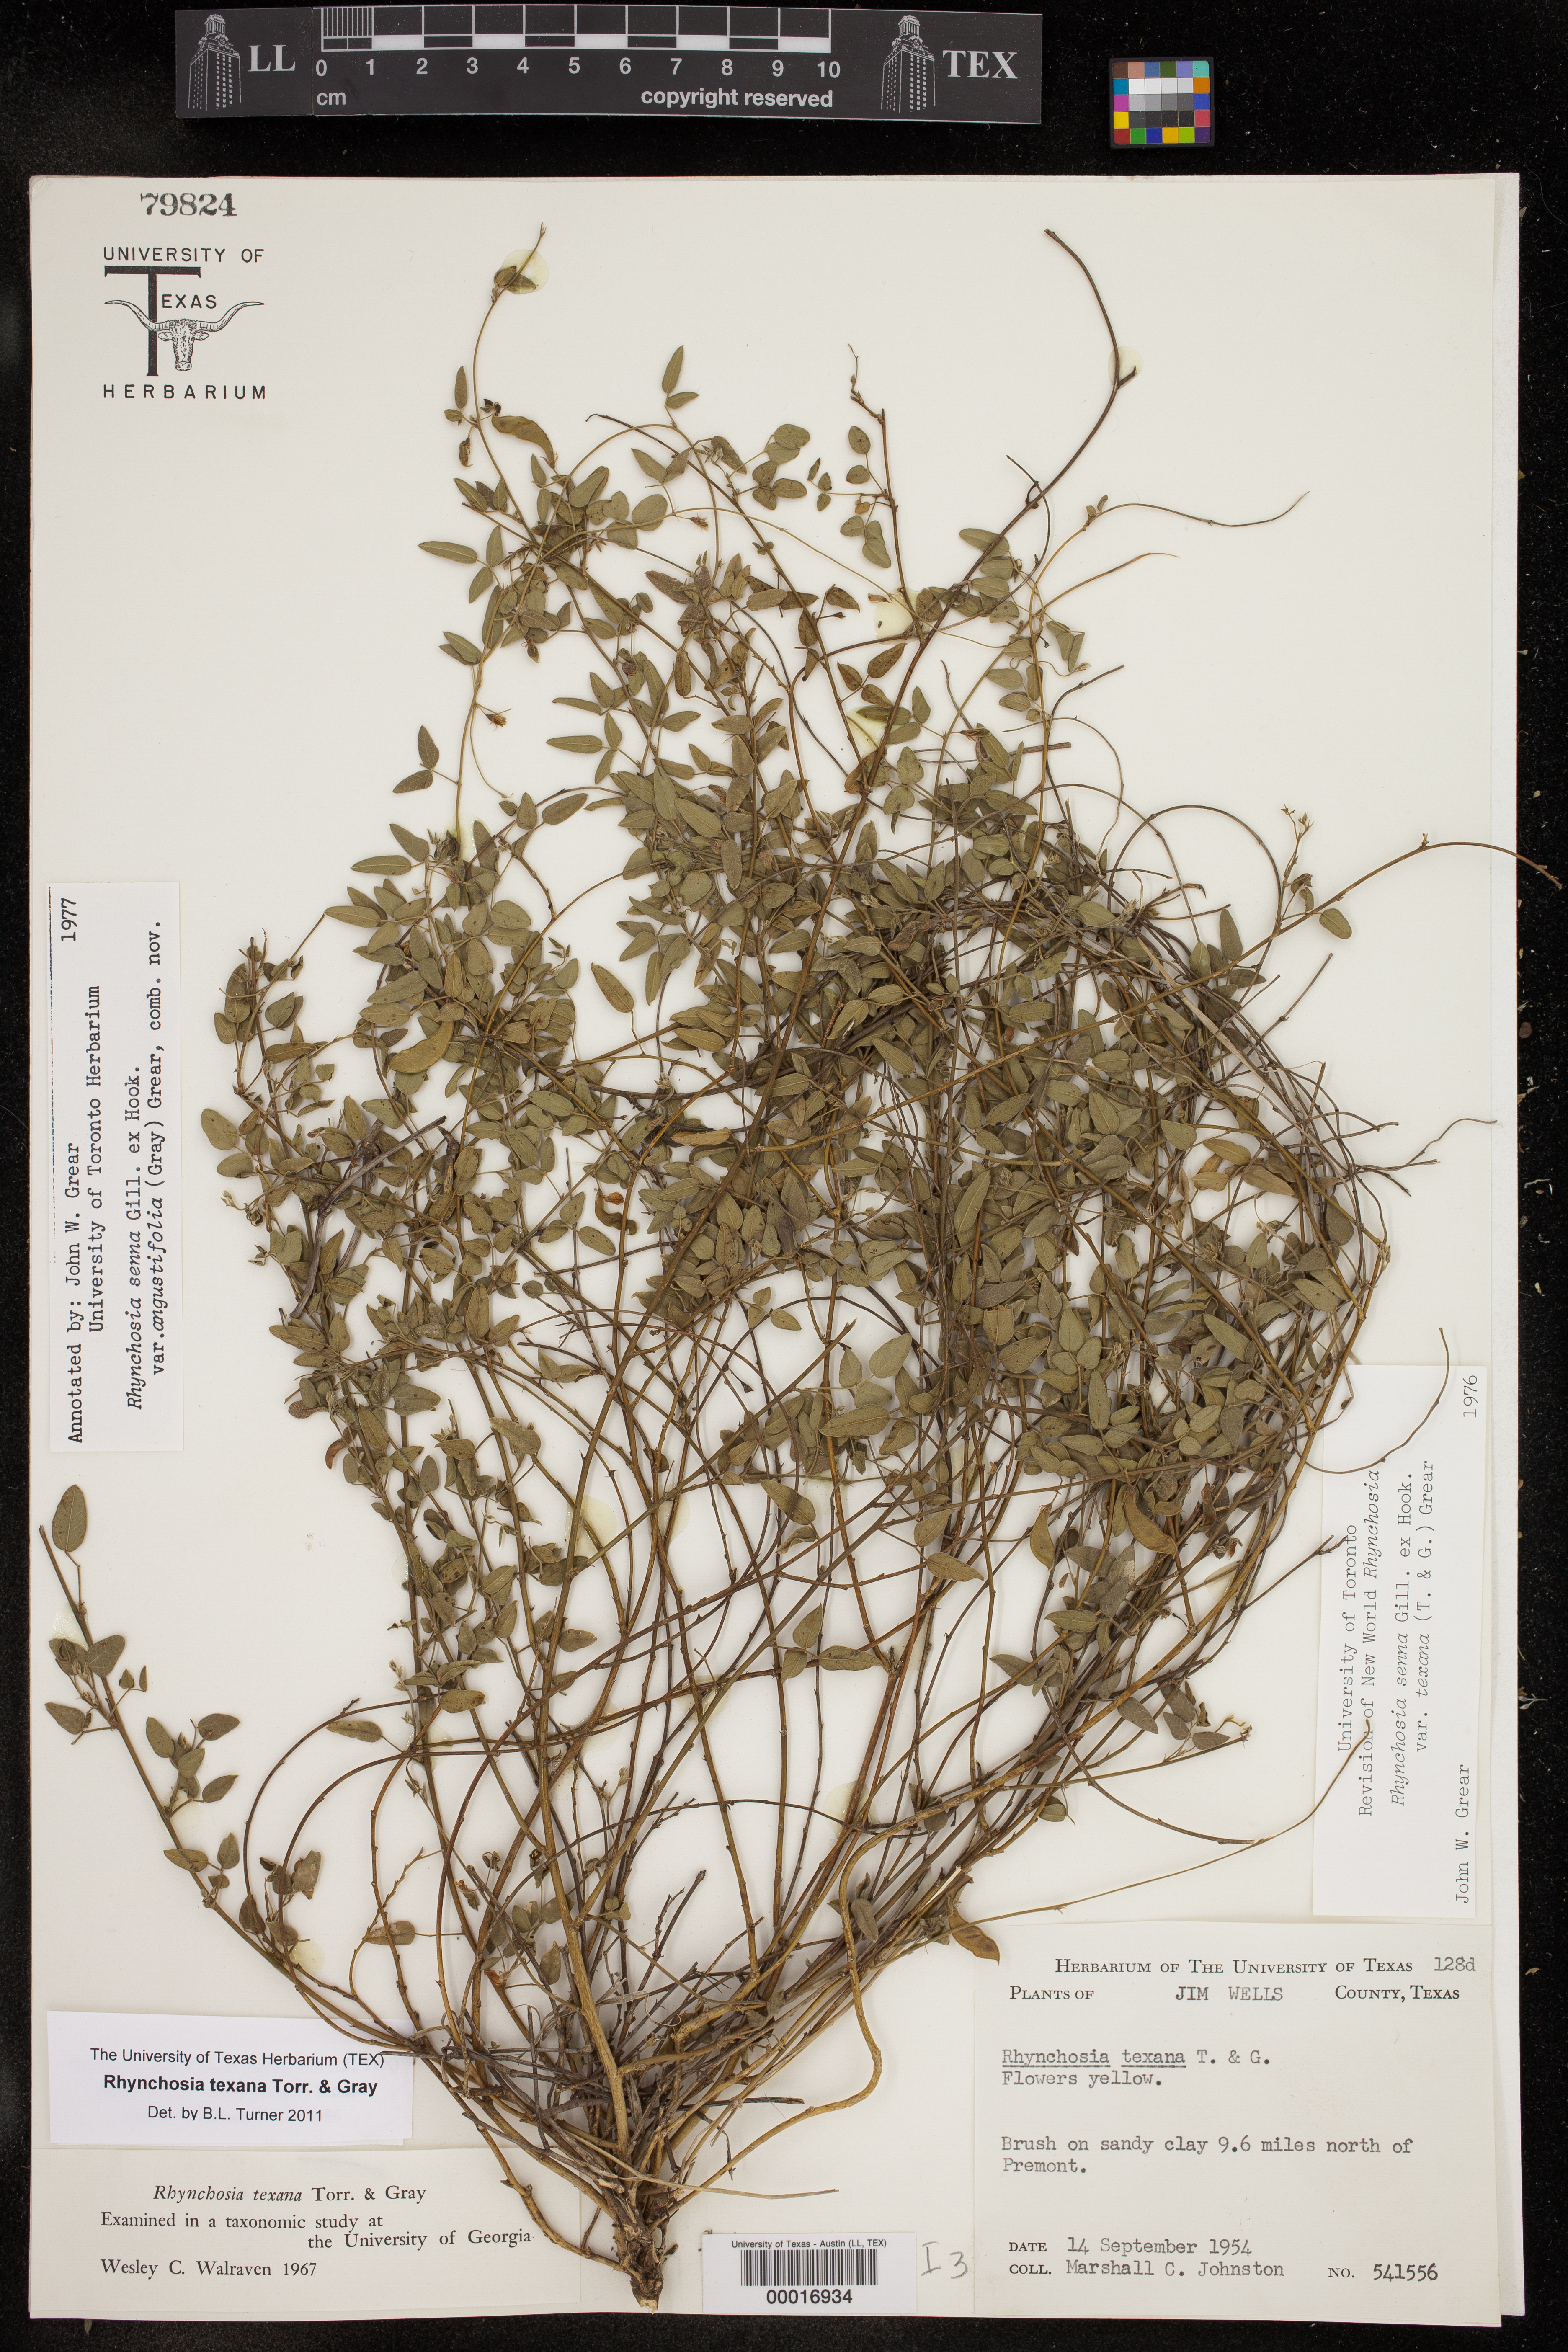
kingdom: Plantae
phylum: Tracheophyta
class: Magnoliopsida
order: Fabales
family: Fabaceae
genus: Rhynchosia
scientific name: Rhynchosia senna
